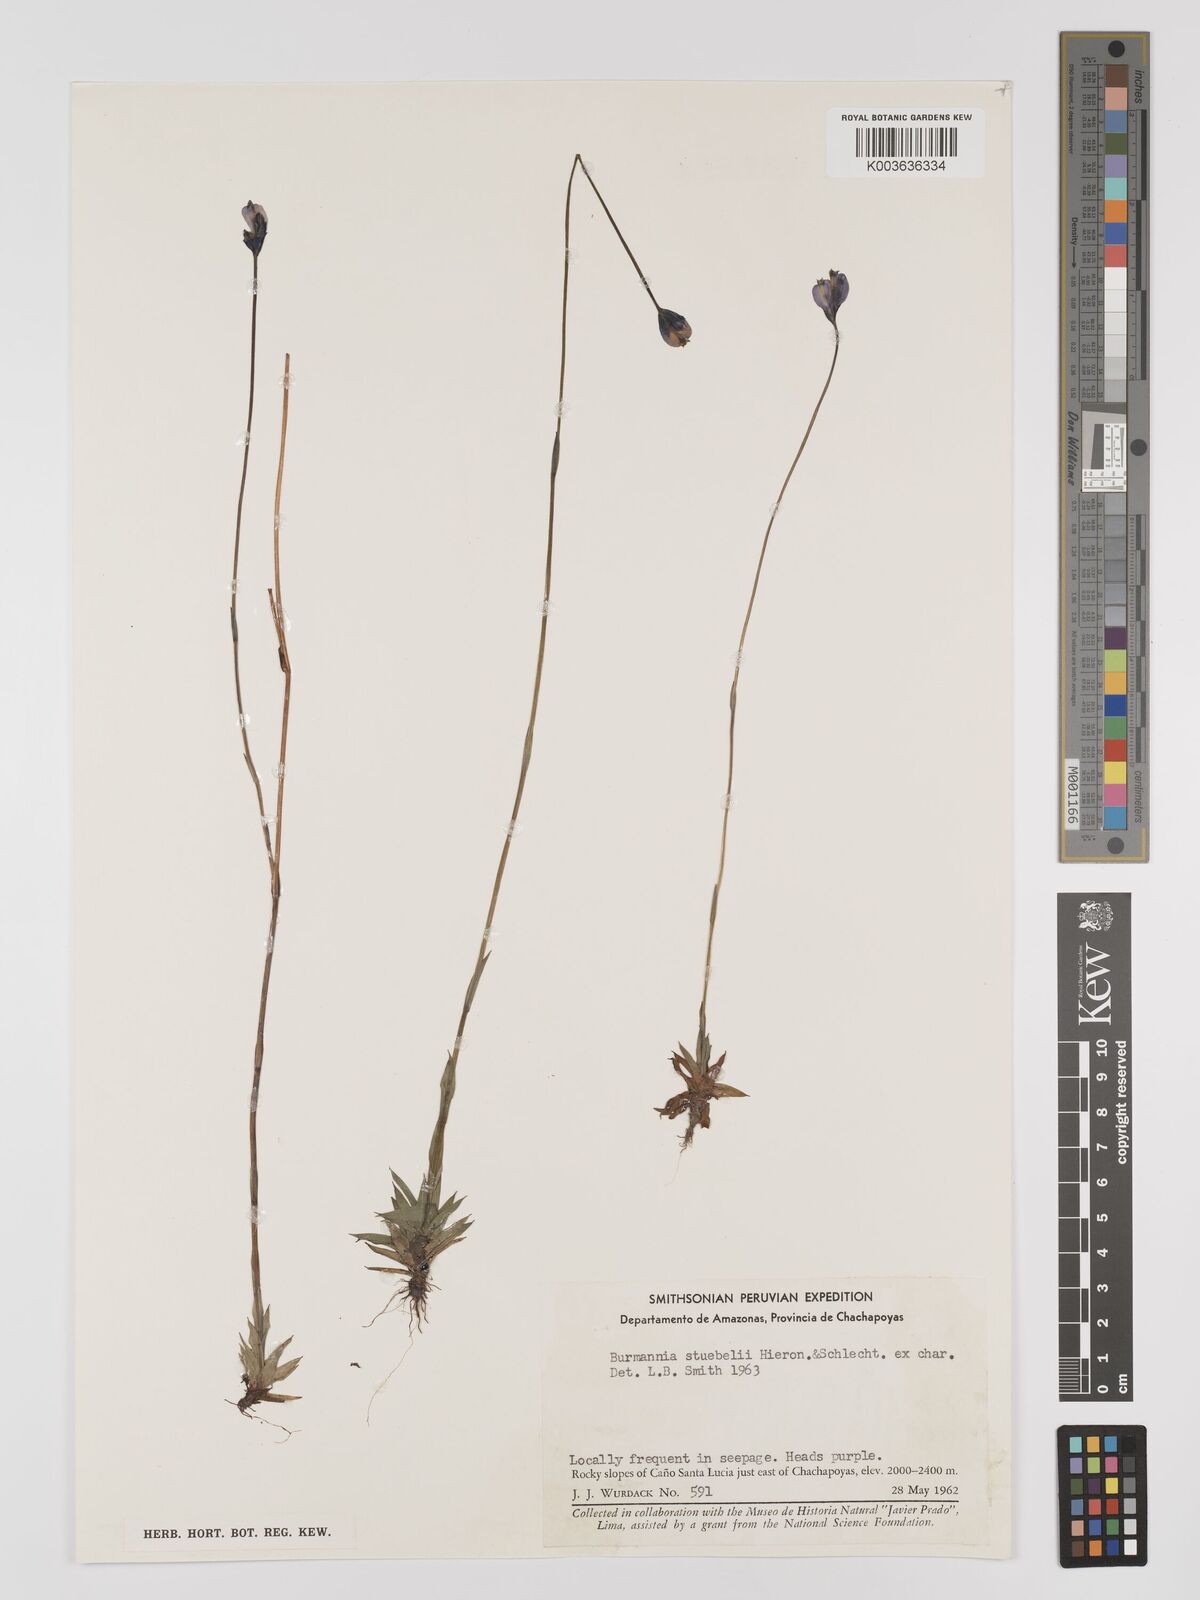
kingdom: Plantae
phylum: Tracheophyta
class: Liliopsida
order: Dioscoreales
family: Burmanniaceae
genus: Burmannia
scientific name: Burmannia stuebelii
